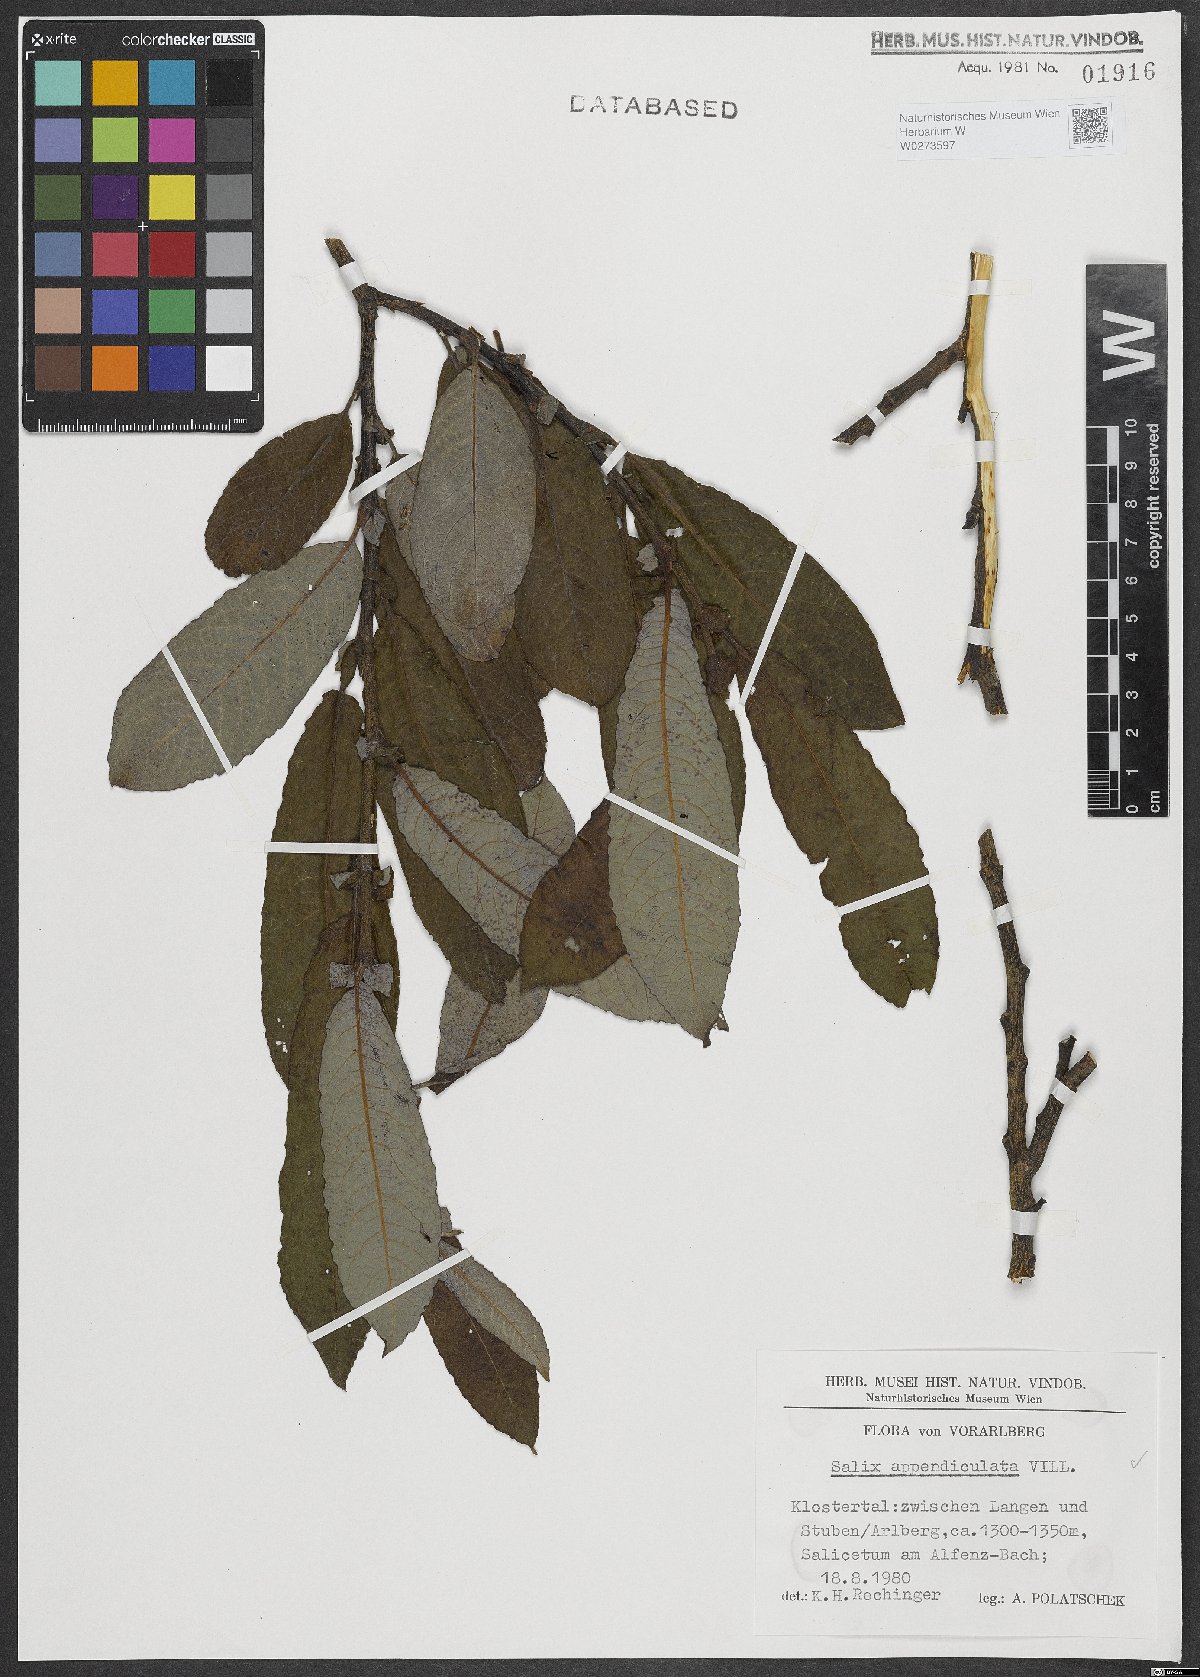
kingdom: Plantae
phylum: Tracheophyta
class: Magnoliopsida
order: Malpighiales
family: Salicaceae
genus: Salix
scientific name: Salix appendiculata
